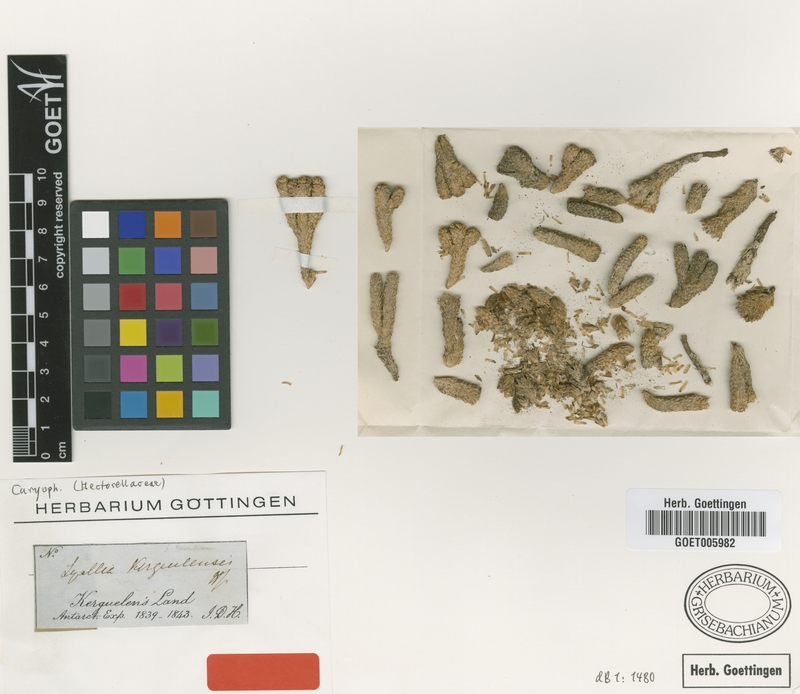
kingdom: Plantae
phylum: Tracheophyta
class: Magnoliopsida
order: Caryophyllales
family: Montiaceae
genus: Lyallia
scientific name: Lyallia kerguelensis
